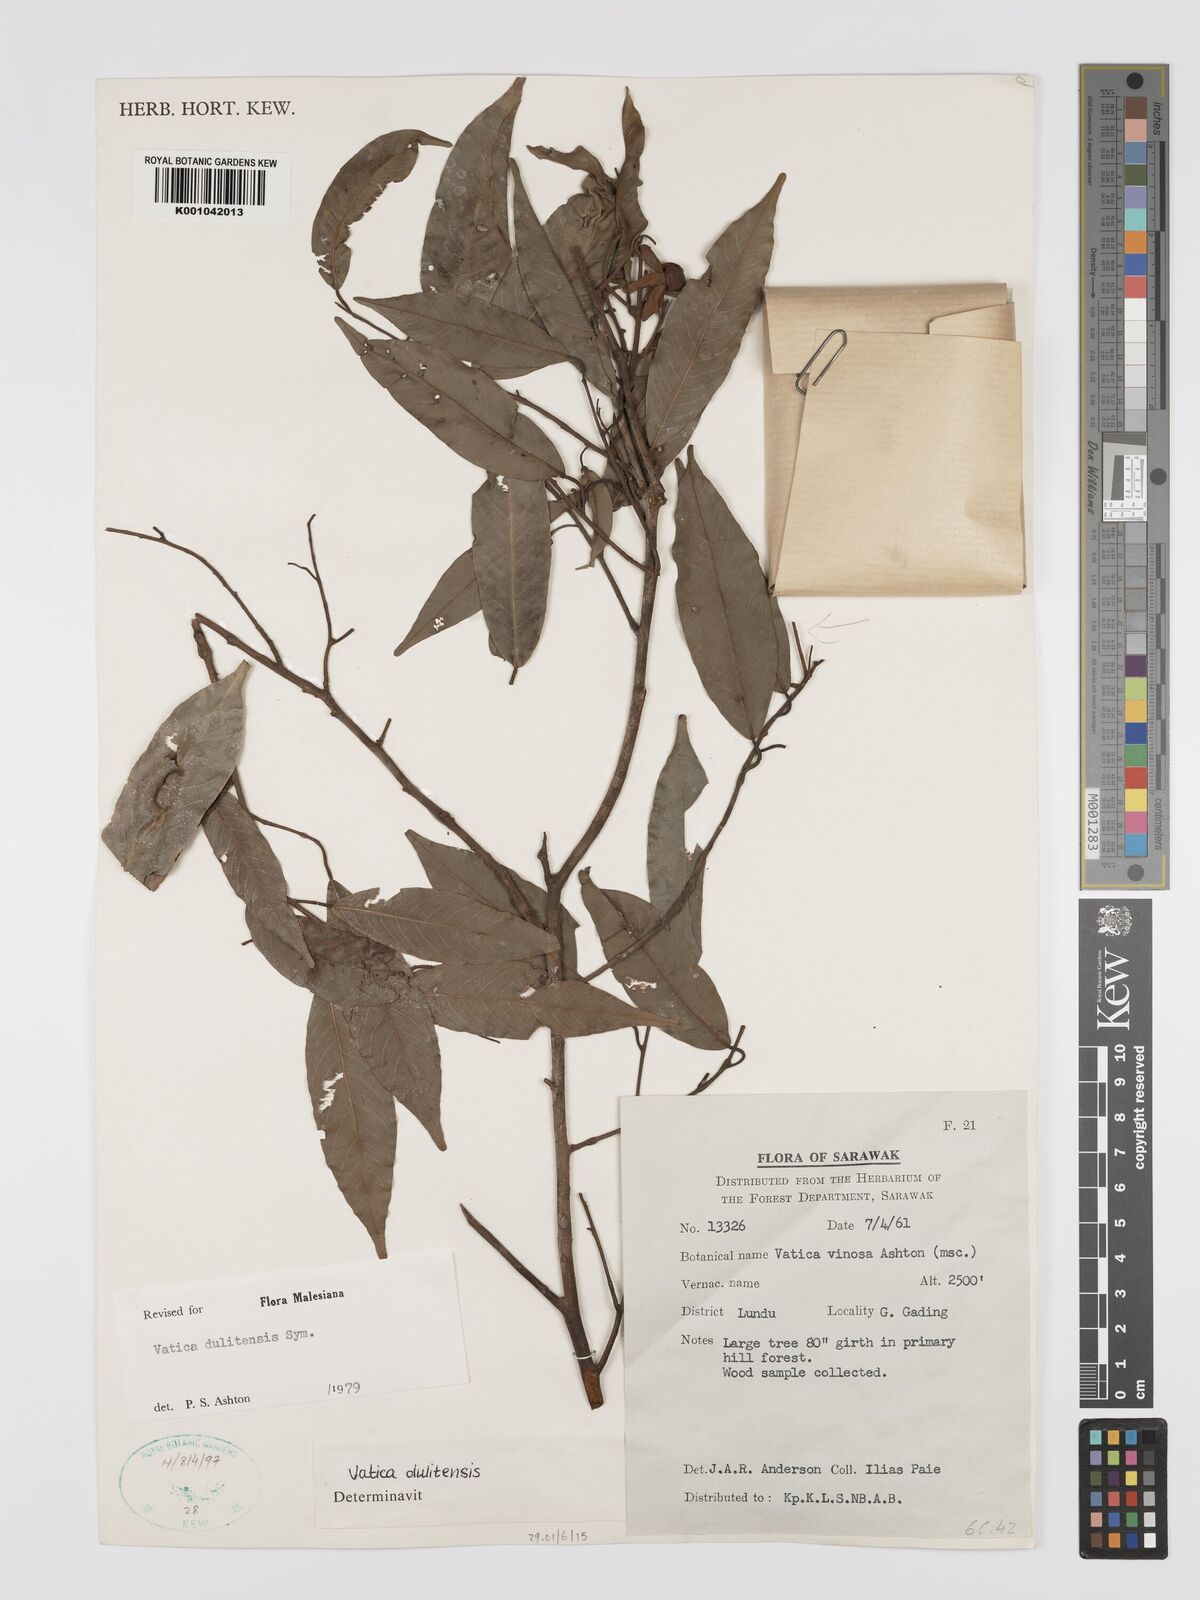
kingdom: Plantae
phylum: Tracheophyta
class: Magnoliopsida
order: Malvales
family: Dipterocarpaceae
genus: Vatica
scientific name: Vatica dulitensis
